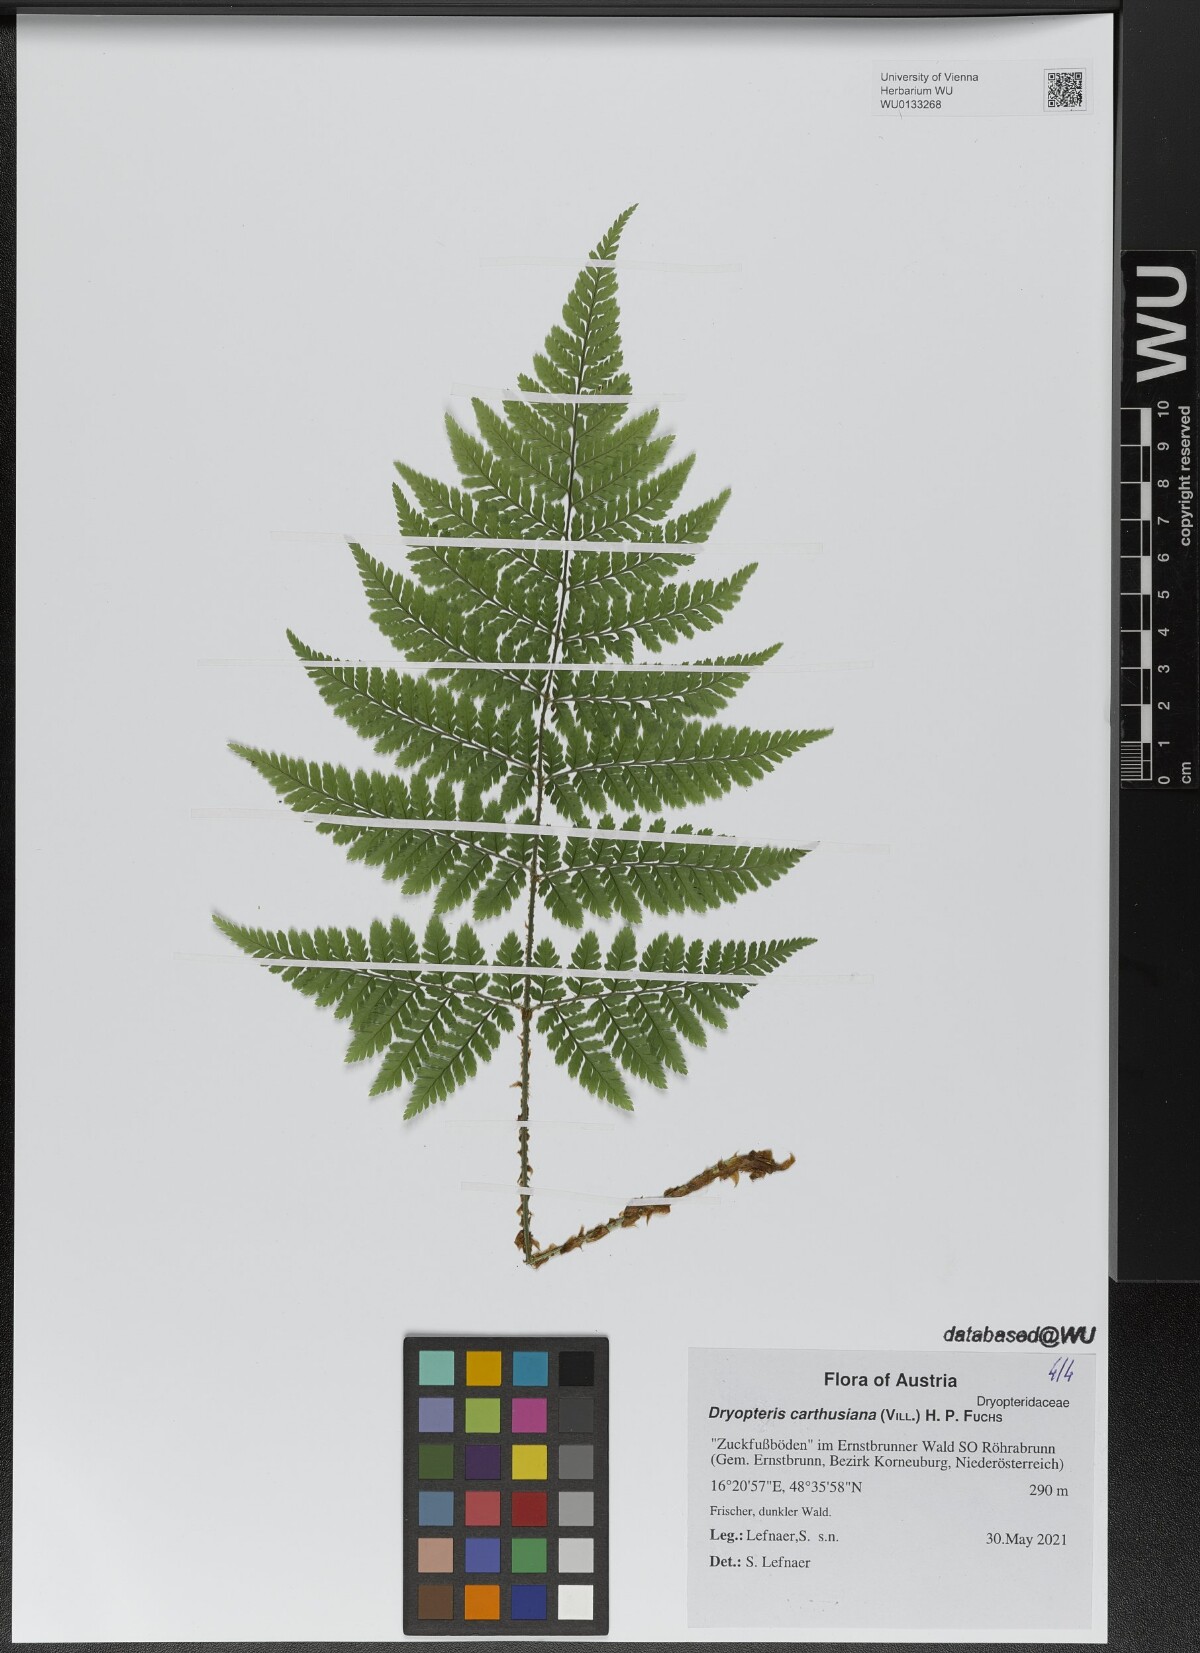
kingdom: Plantae
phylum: Tracheophyta
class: Polypodiopsida
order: Polypodiales
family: Dryopteridaceae
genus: Dryopteris
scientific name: Dryopteris carthusiana
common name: Narrow buckler-fern
